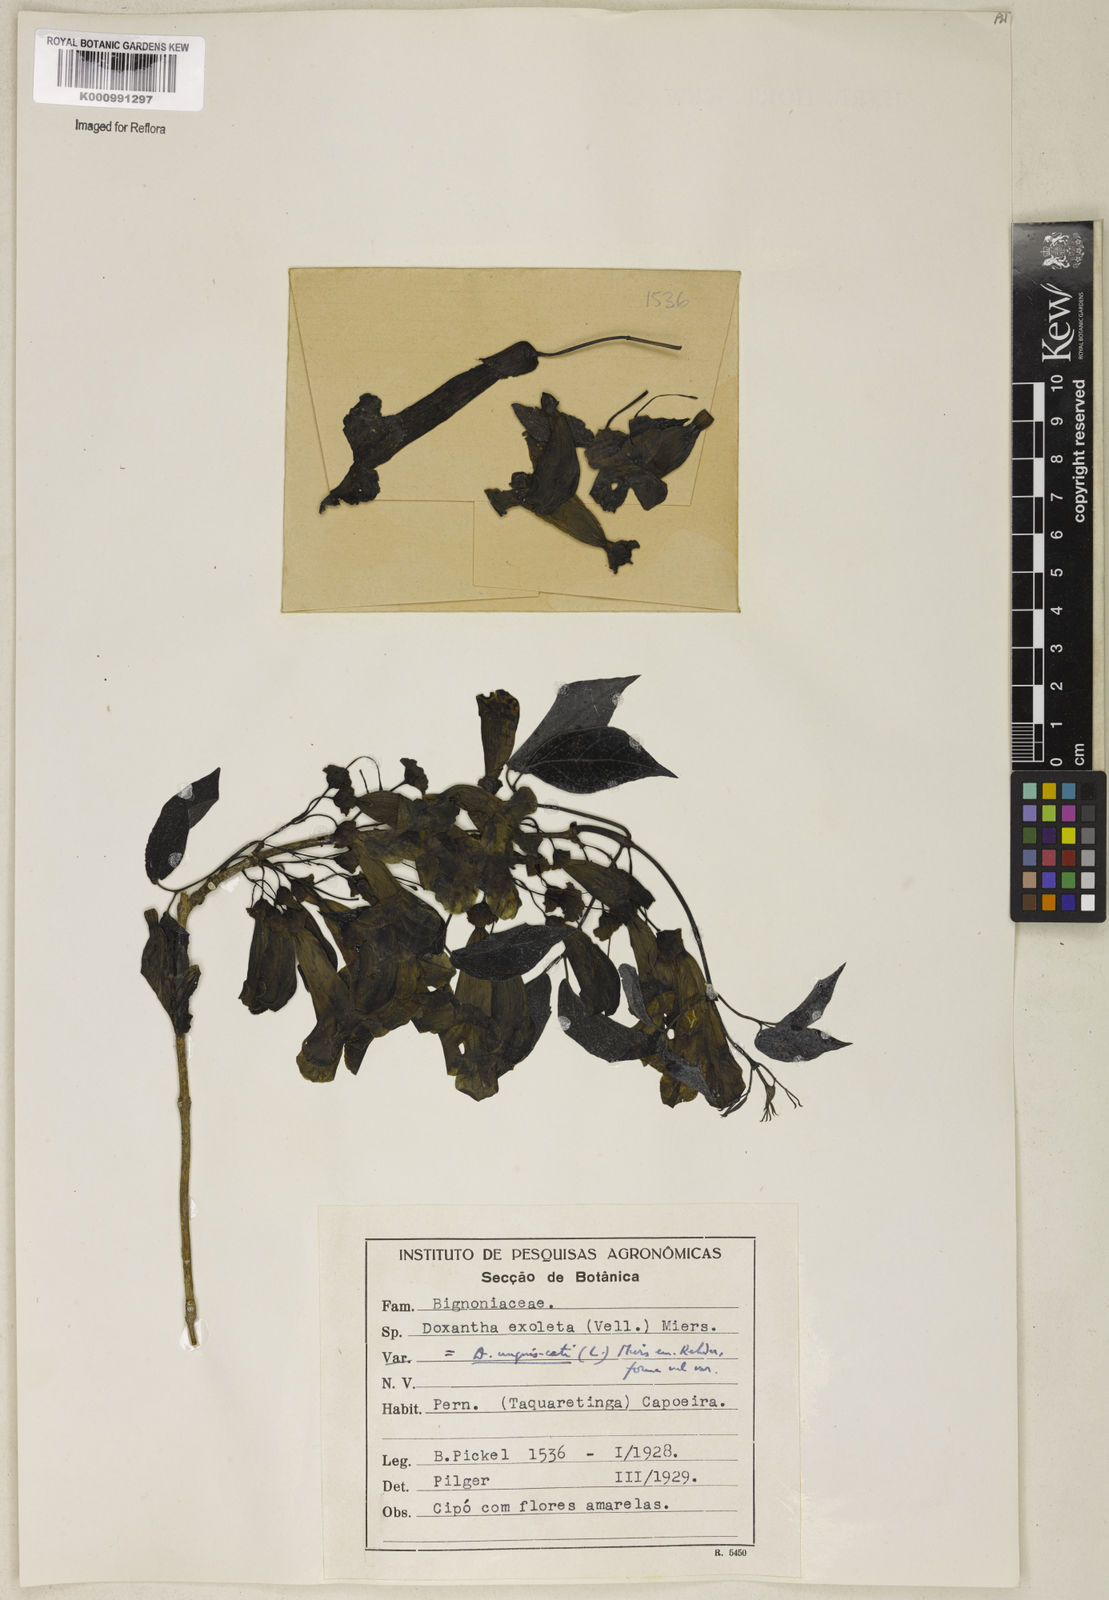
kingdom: Animalia
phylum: Chordata
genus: Macfadyena
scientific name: Macfadyena
